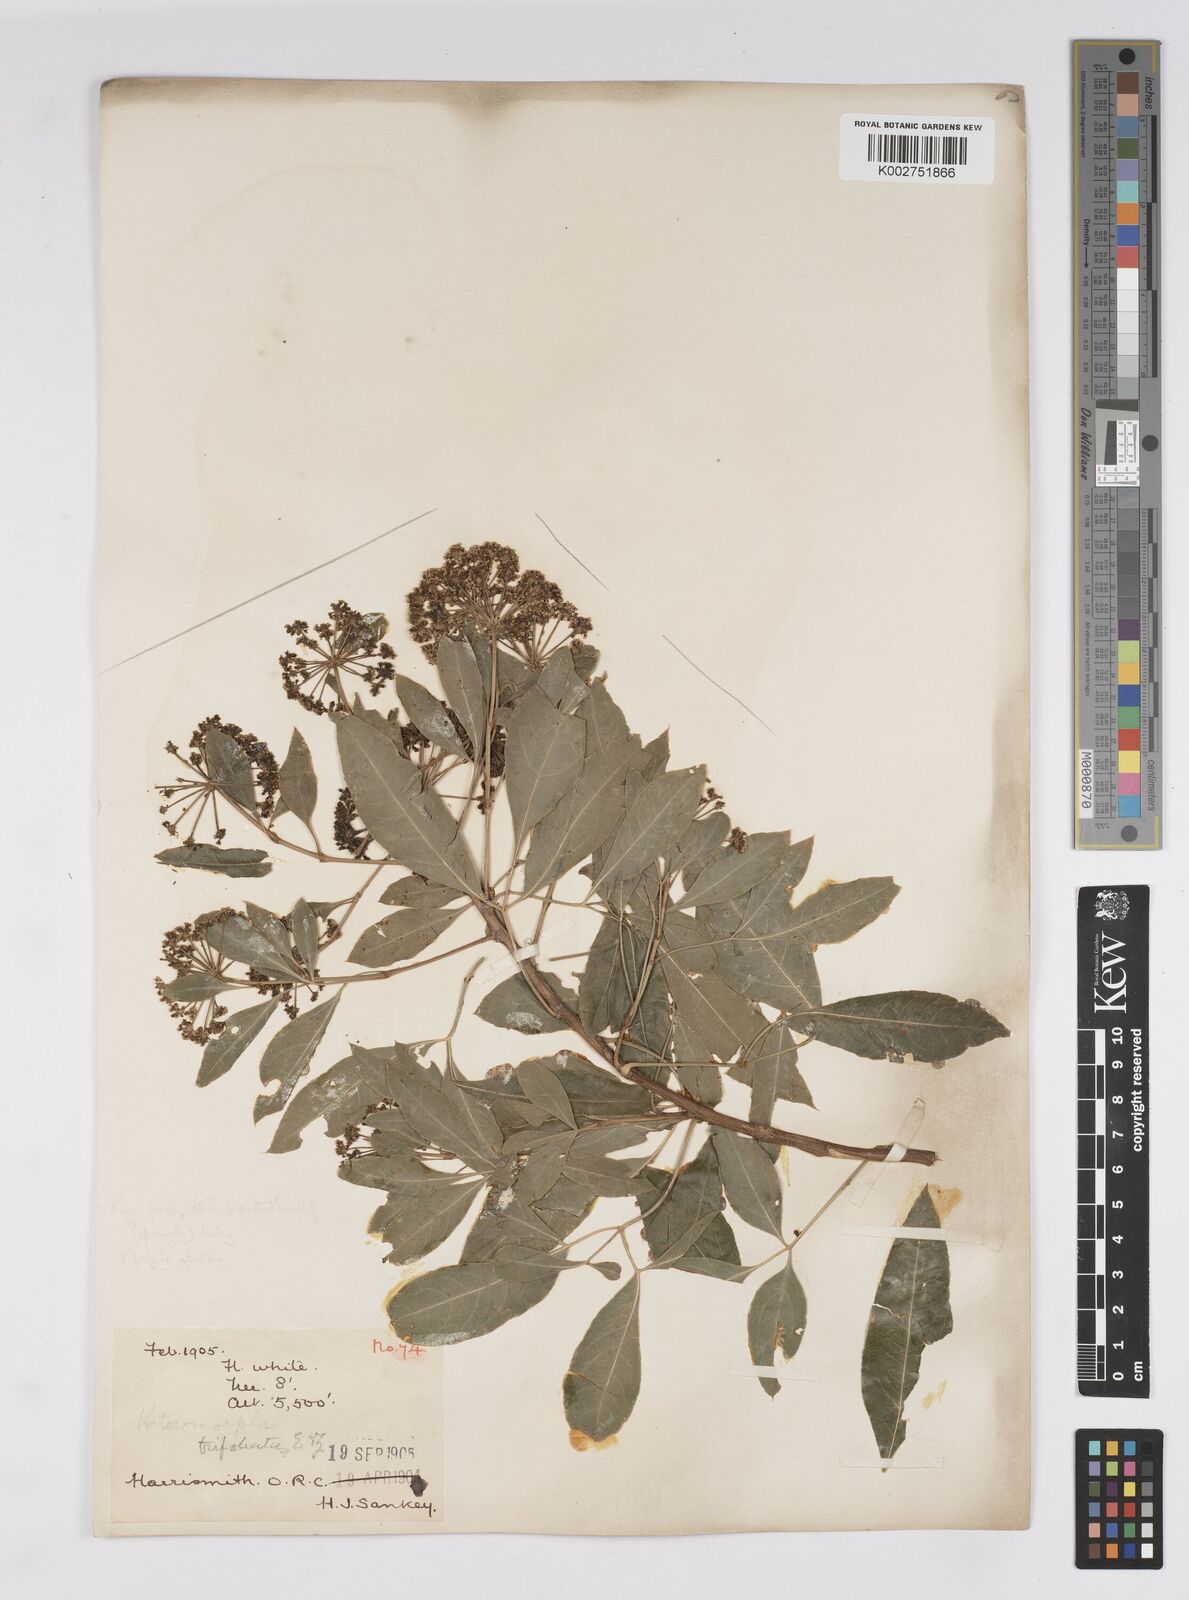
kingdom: Plantae
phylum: Tracheophyta
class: Magnoliopsida
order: Apiales
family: Apiaceae
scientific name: Apiaceae
